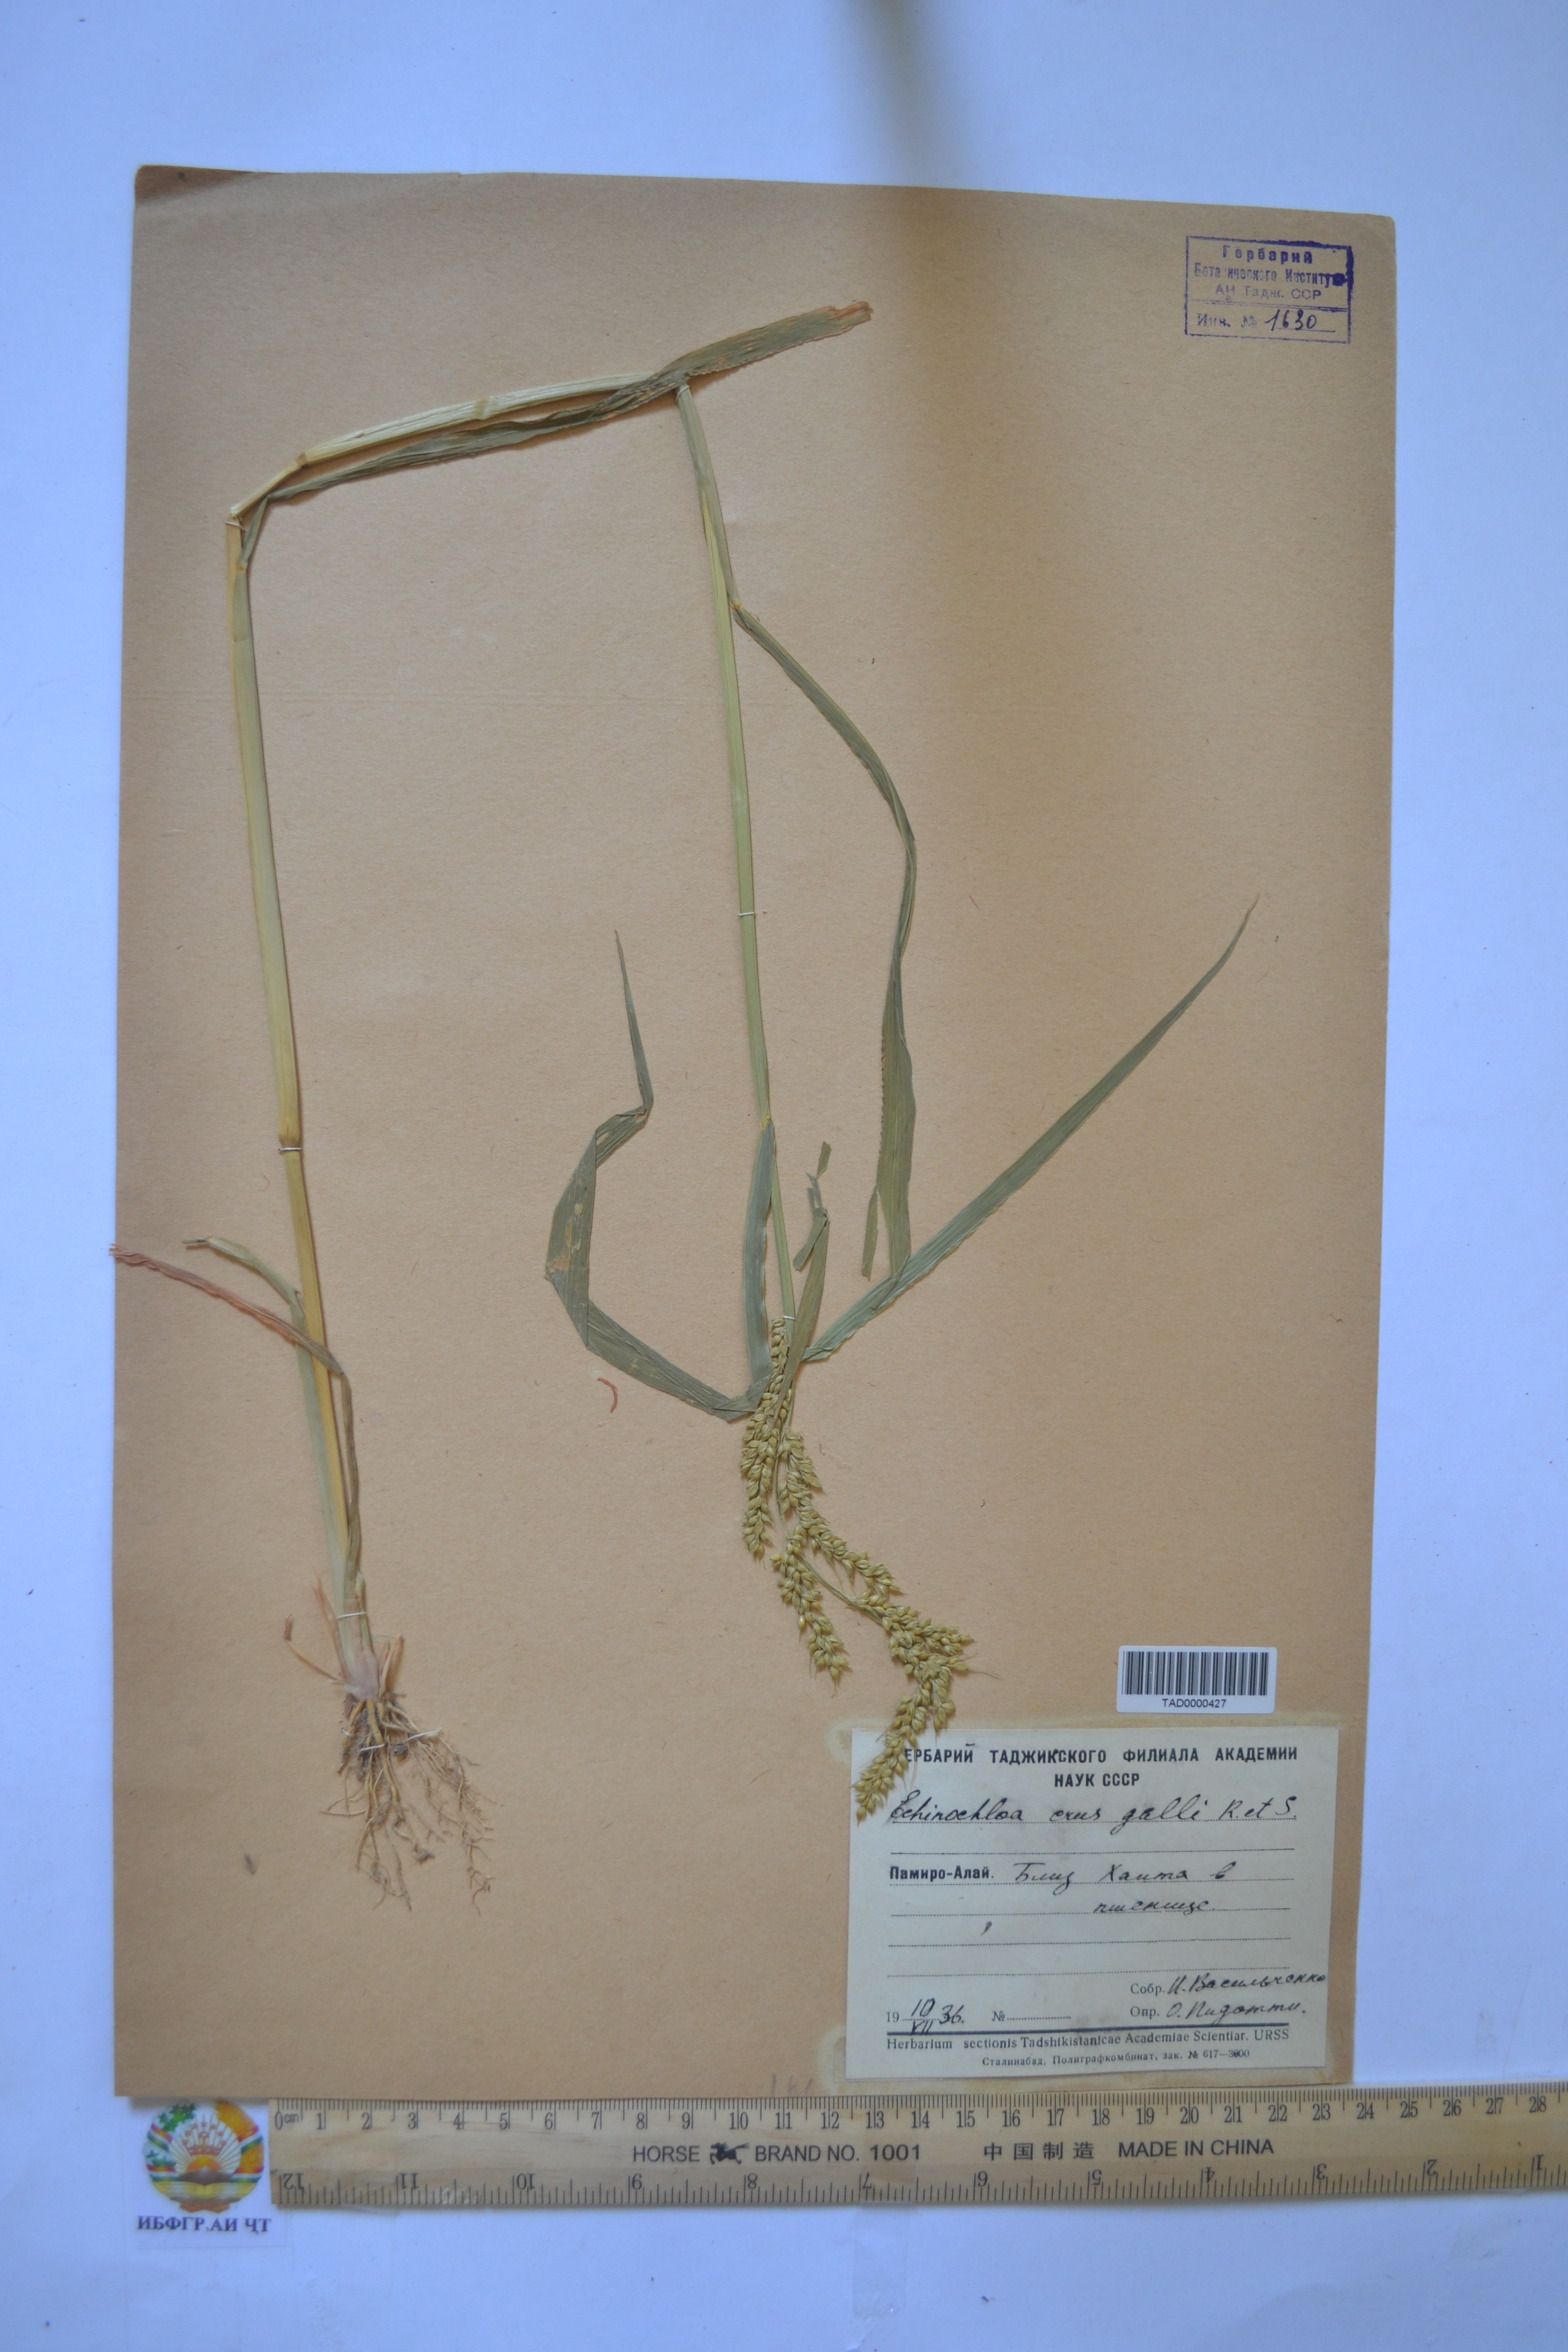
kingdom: Plantae
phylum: Tracheophyta
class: Liliopsida
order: Poales
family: Poaceae
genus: Echinochloa
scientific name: Echinochloa crus-galli
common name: Cockspur
